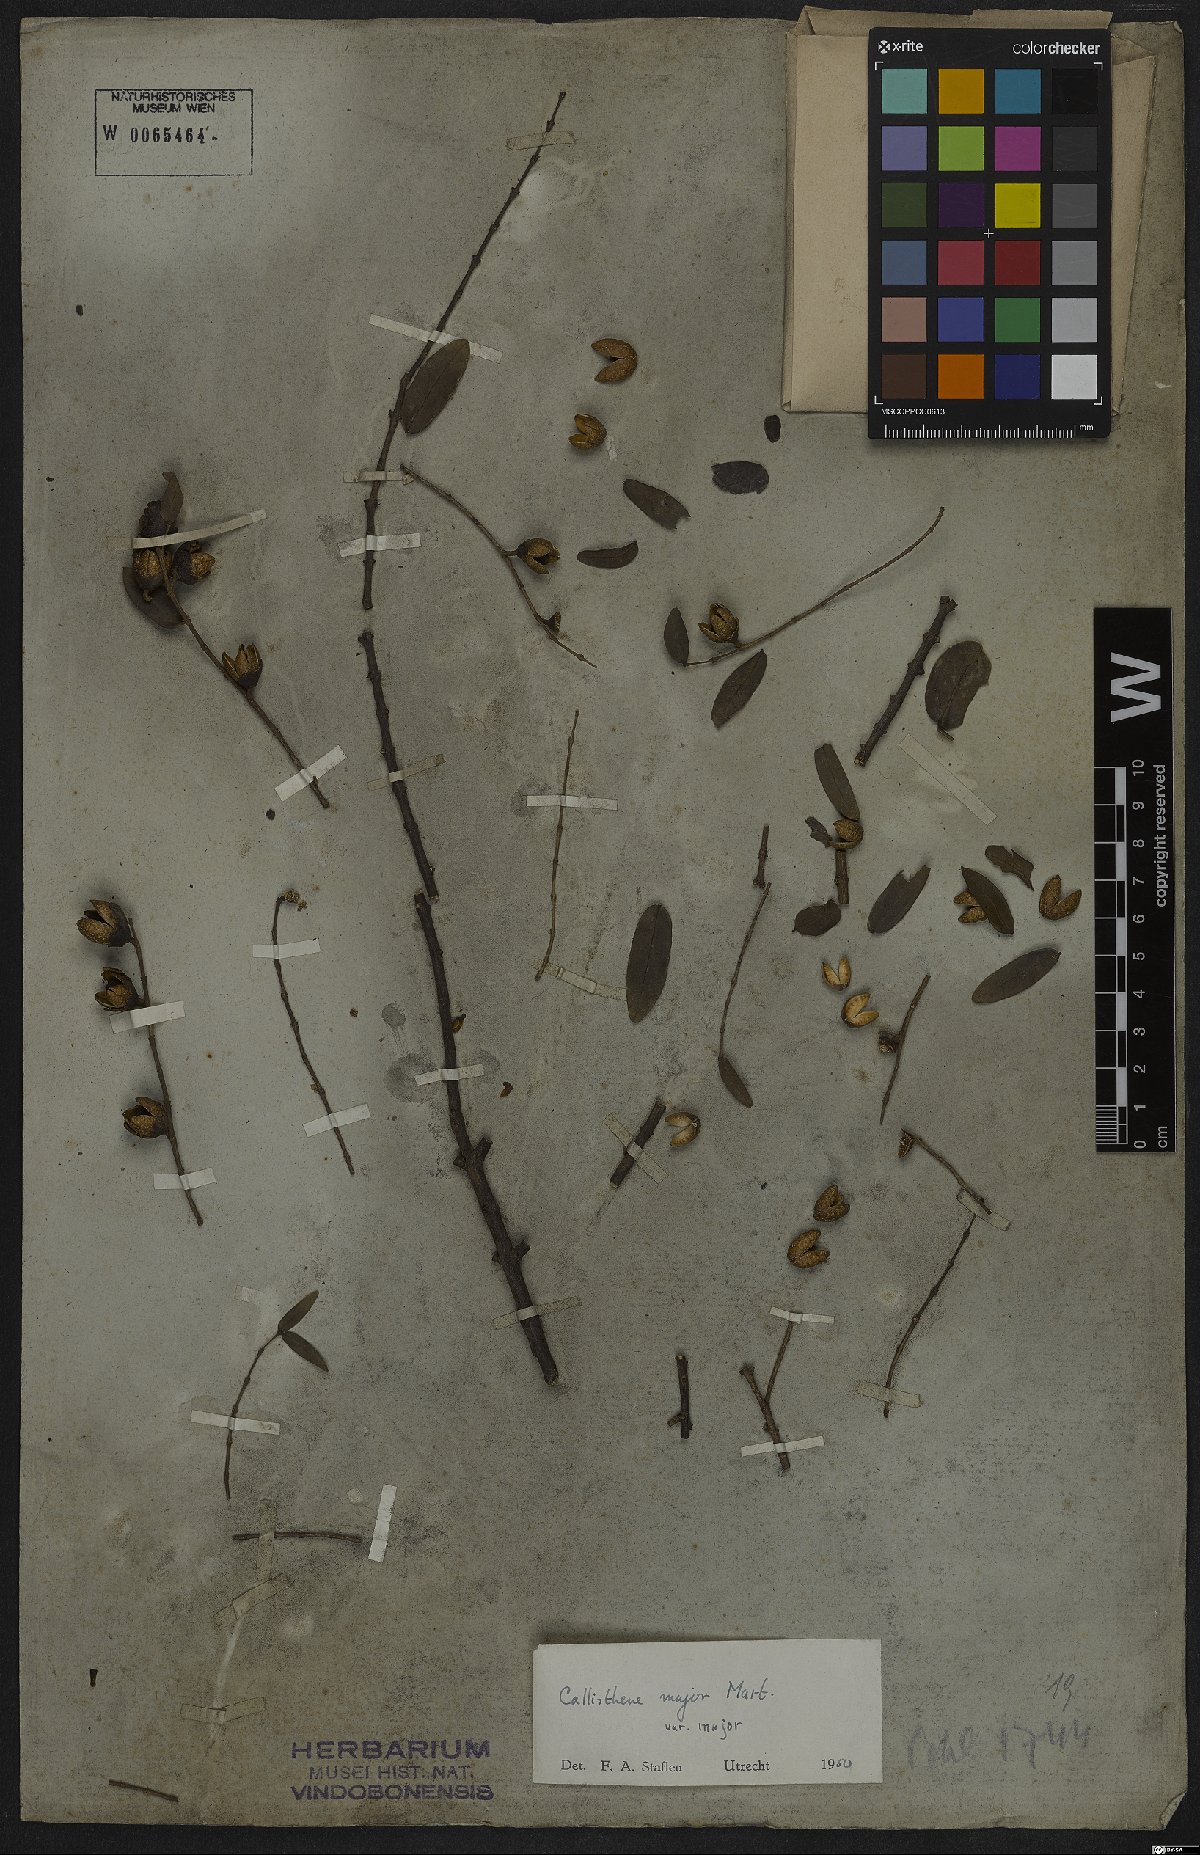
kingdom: Plantae
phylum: Tracheophyta
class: Magnoliopsida
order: Myrtales
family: Vochysiaceae
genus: Callisthene
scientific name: Callisthene major
